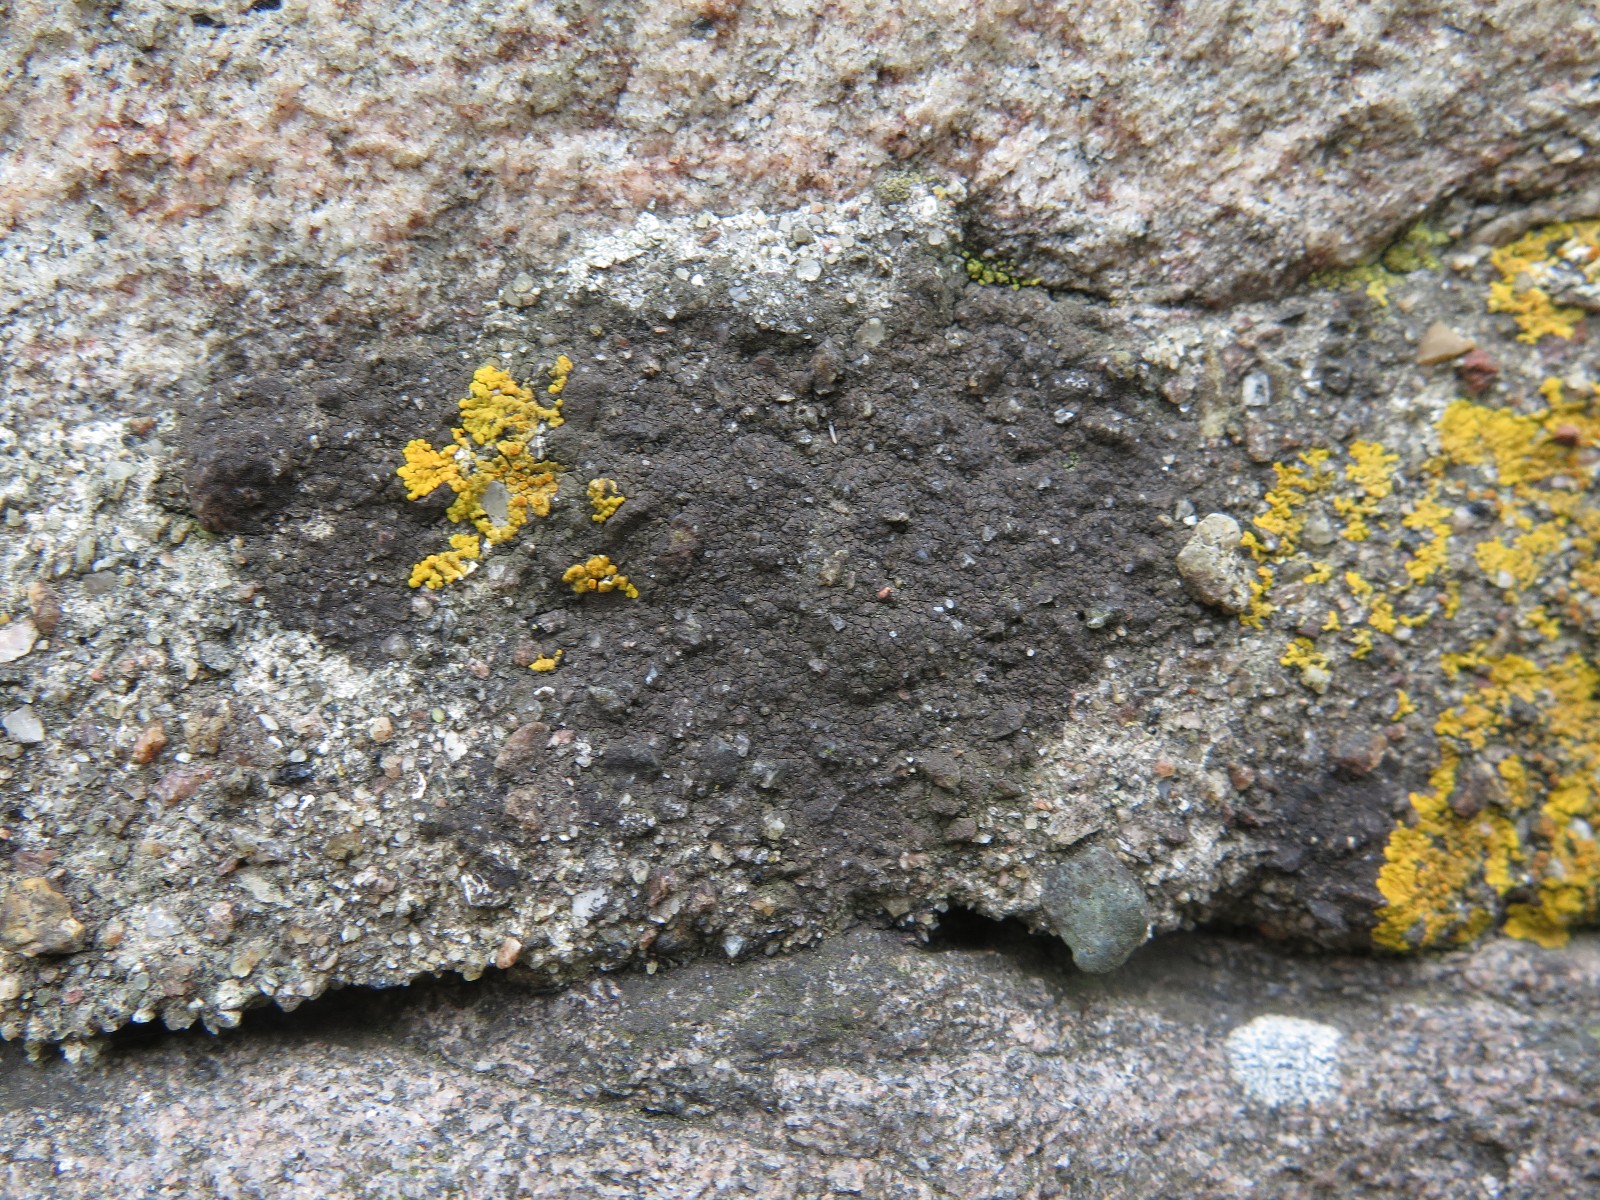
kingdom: Fungi
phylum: Ascomycota
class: Eurotiomycetes
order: Verrucariales
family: Verrucariaceae
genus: Verrucaria
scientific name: Verrucaria nigrescens
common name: sortbrun vortelav
